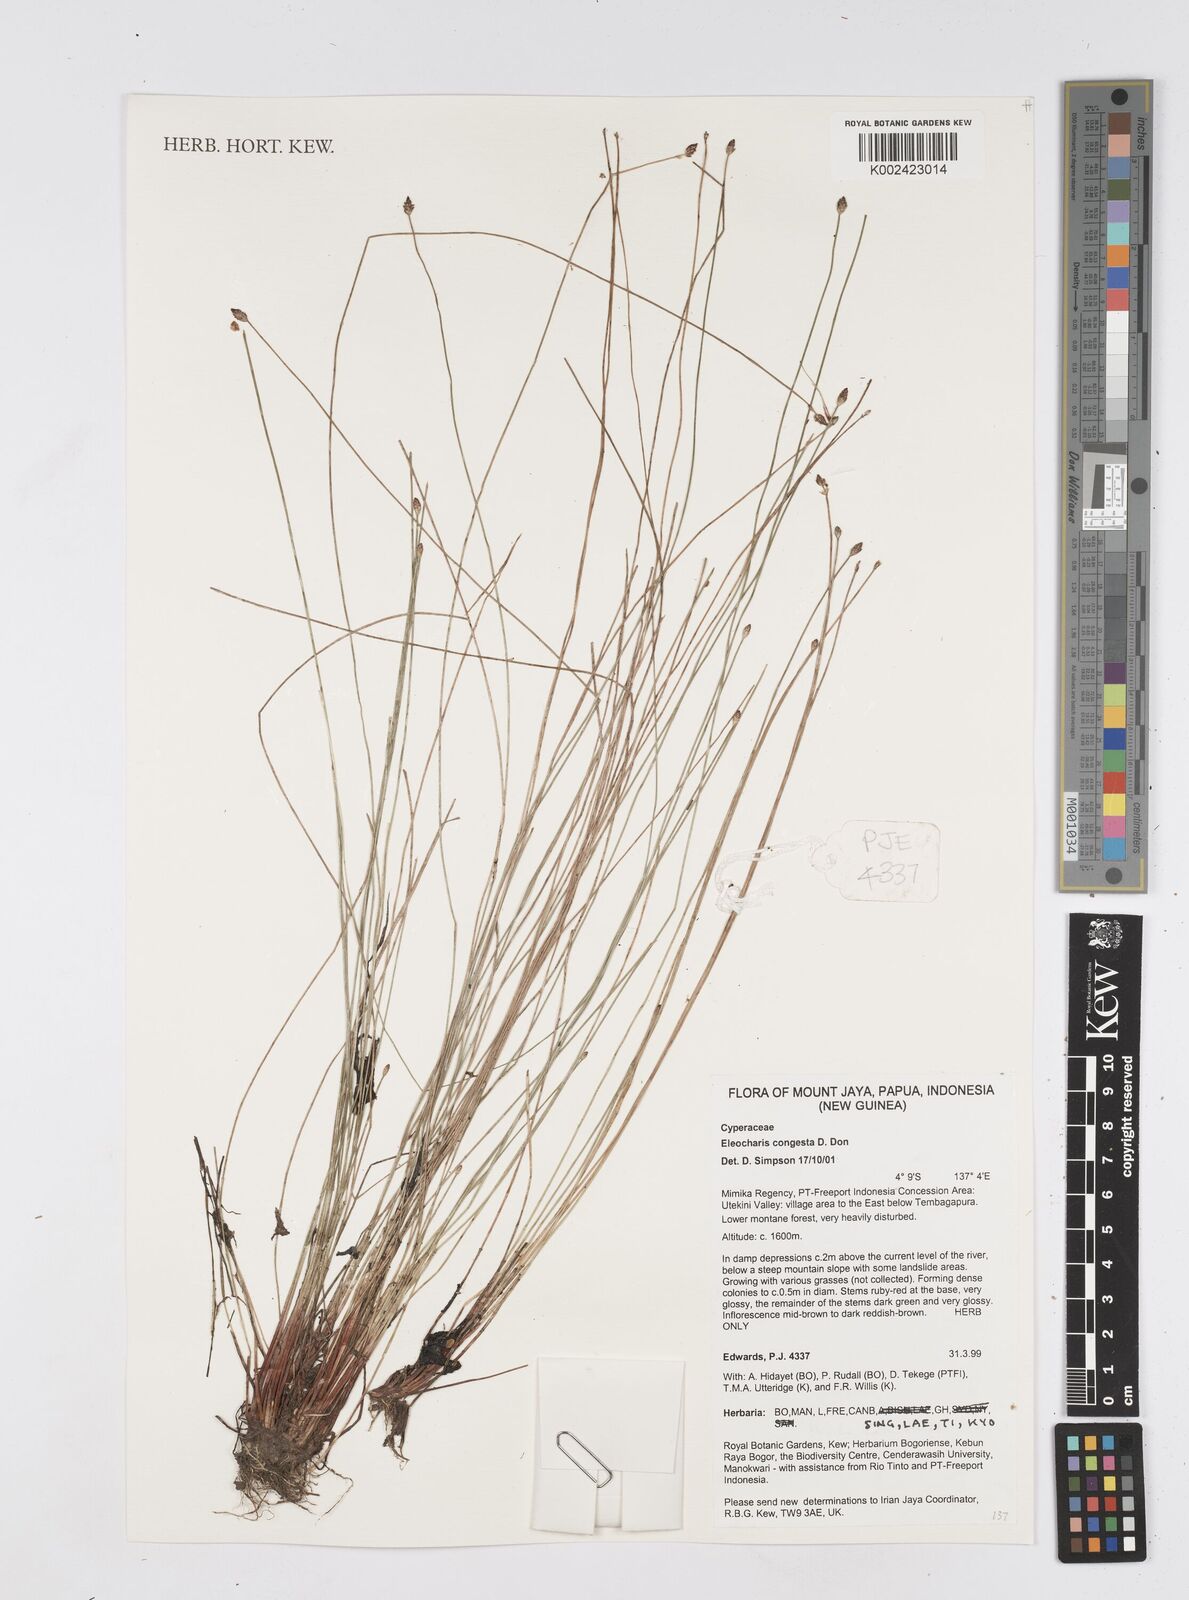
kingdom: Plantae
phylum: Tracheophyta
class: Liliopsida
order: Poales
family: Cyperaceae
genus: Eleocharis
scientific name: Eleocharis congesta
